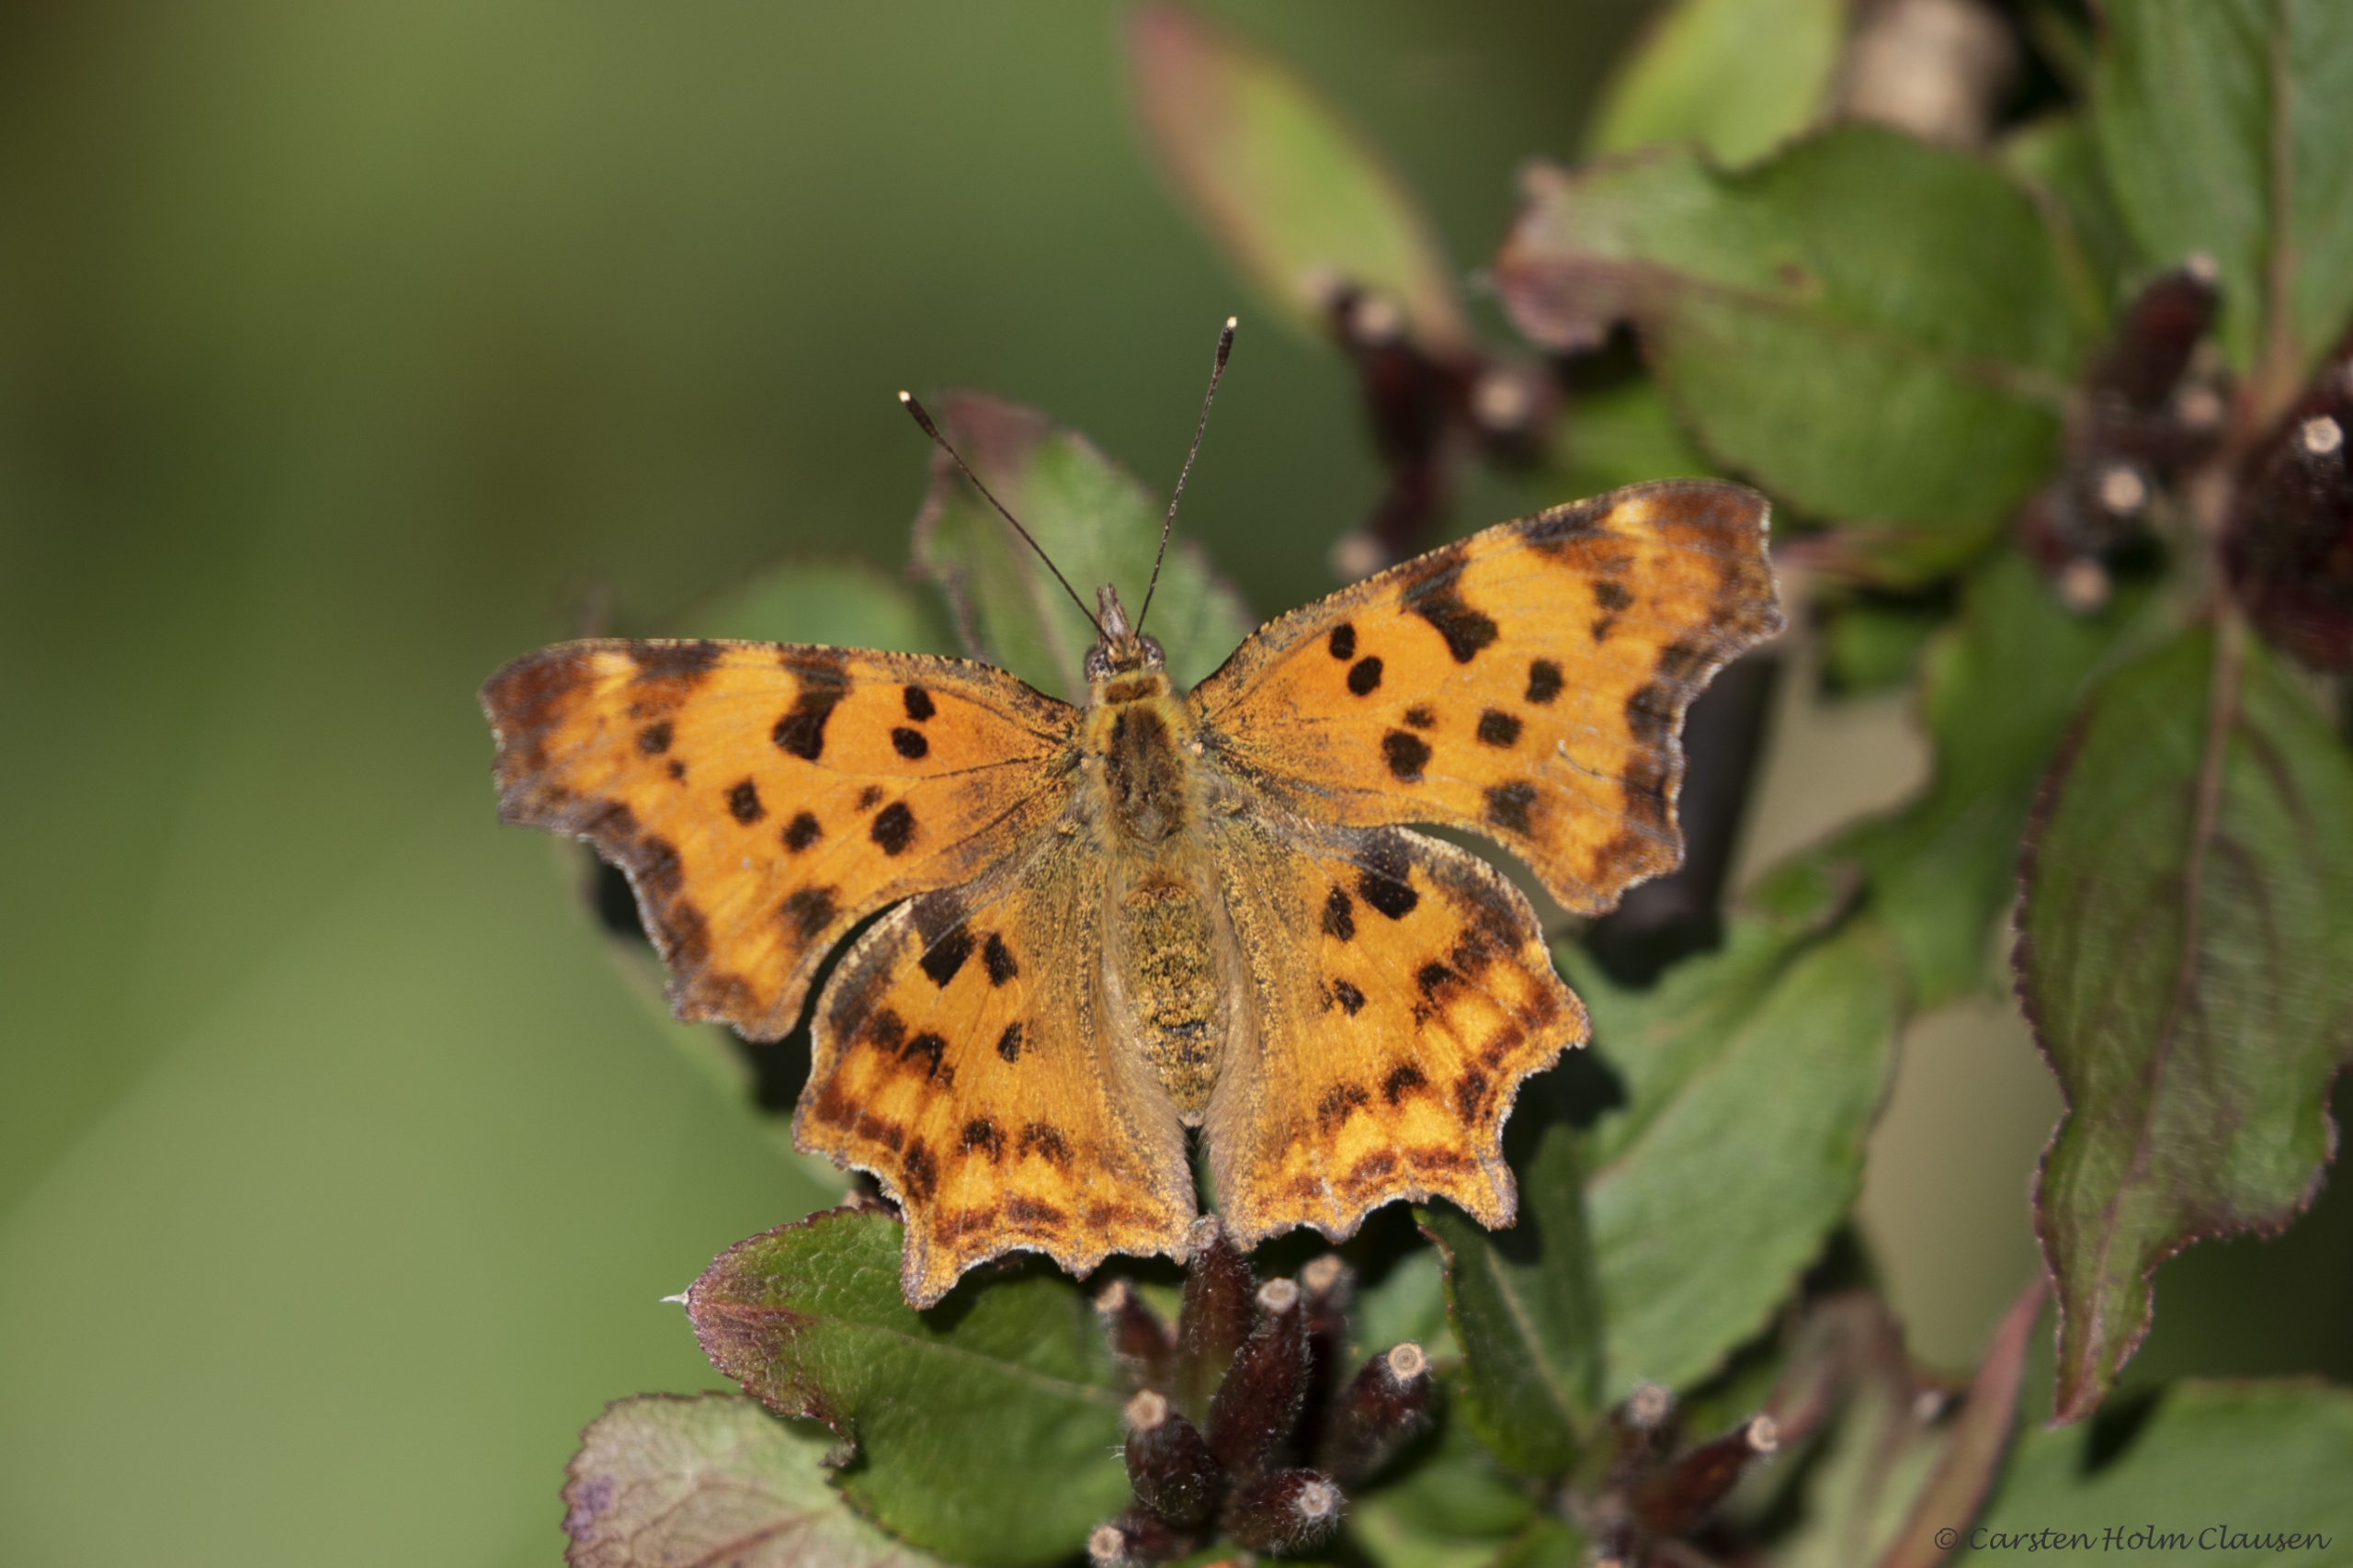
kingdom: Animalia
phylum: Arthropoda
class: Insecta
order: Lepidoptera
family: Nymphalidae
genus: Polygonia
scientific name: Polygonia c-album
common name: Det hvide C
